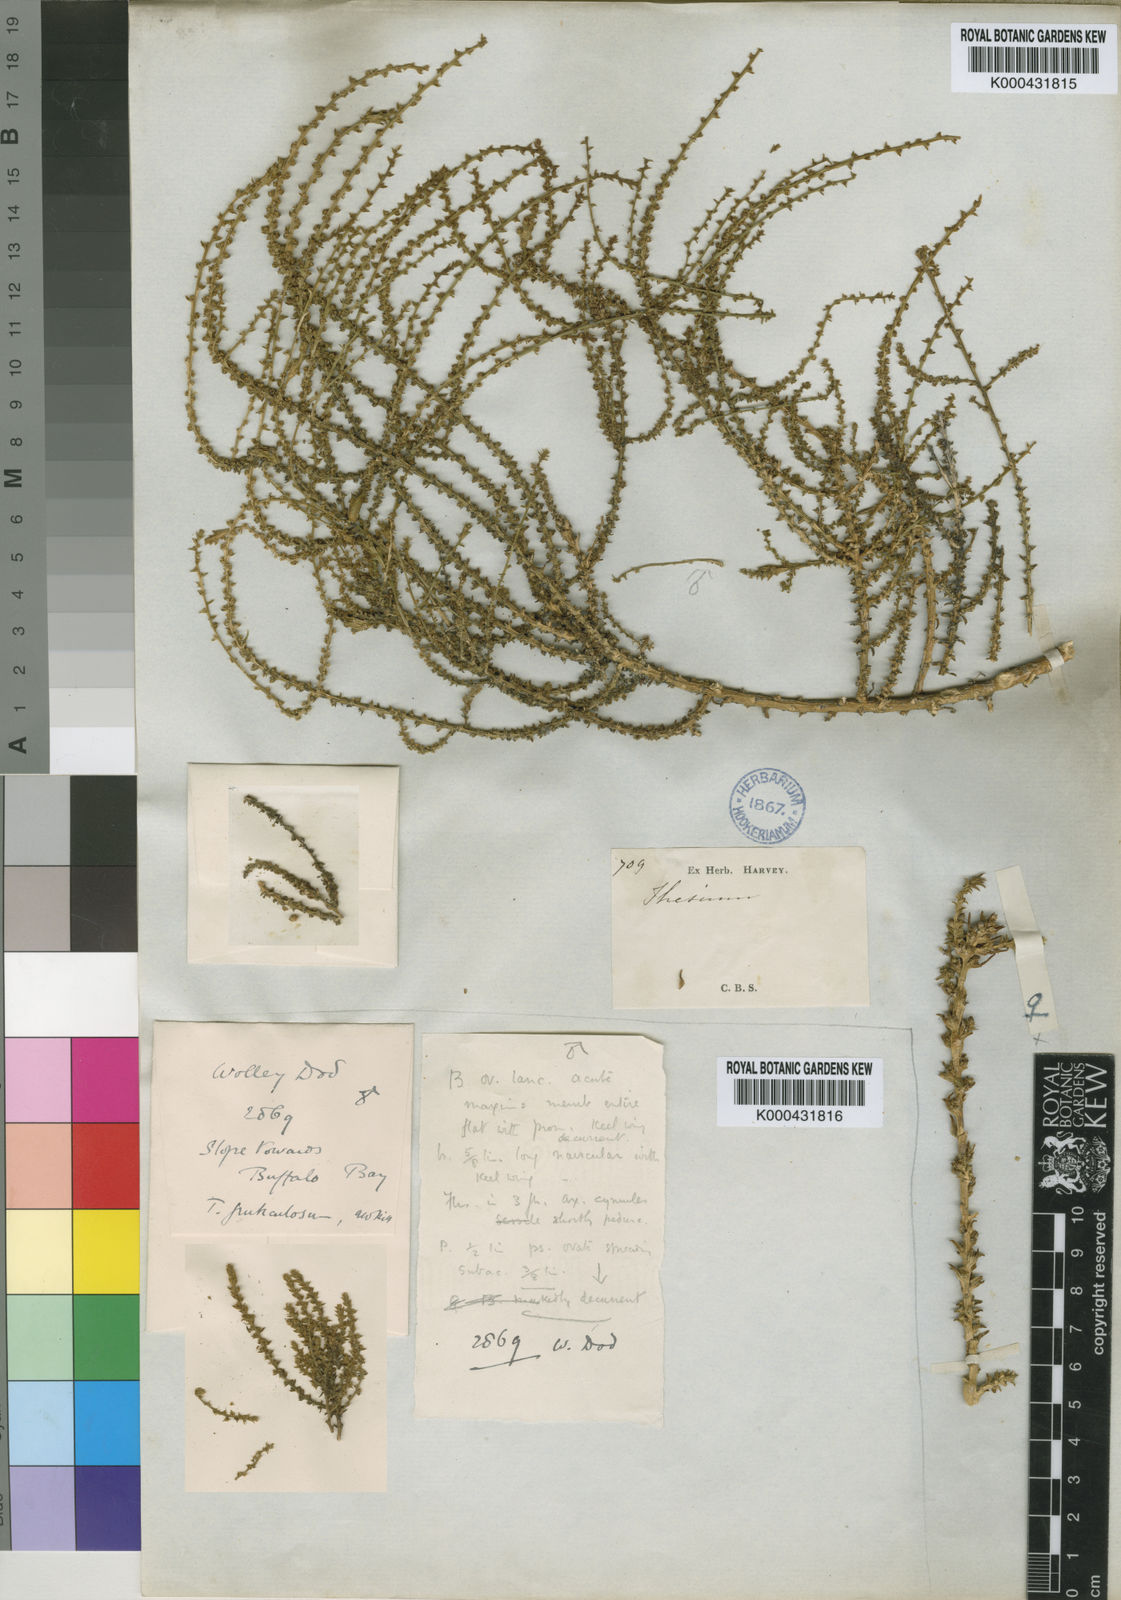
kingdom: Plantae
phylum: Tracheophyta
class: Magnoliopsida
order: Santalales
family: Thesiaceae
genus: Thesium
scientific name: Thesium fruticulosum
